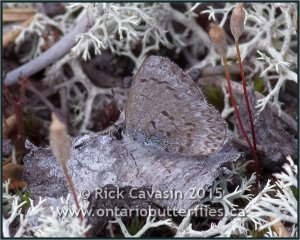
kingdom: Animalia
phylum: Arthropoda
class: Insecta
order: Lepidoptera
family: Lycaenidae
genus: Celastrina
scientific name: Celastrina lucia
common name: Northern Spring Azure
